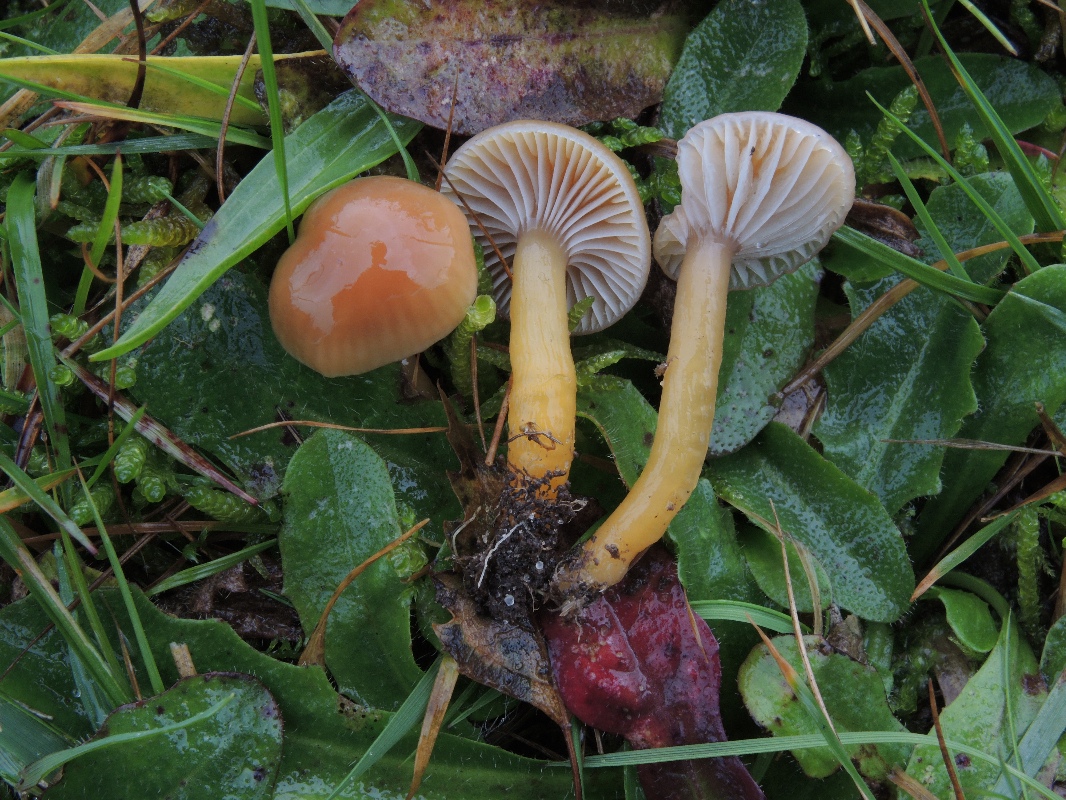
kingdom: Fungi
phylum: Basidiomycota
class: Agaricomycetes
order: Agaricales
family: Hygrophoraceae
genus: Gliophorus
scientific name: Gliophorus laetus
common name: brusk-vokshat
